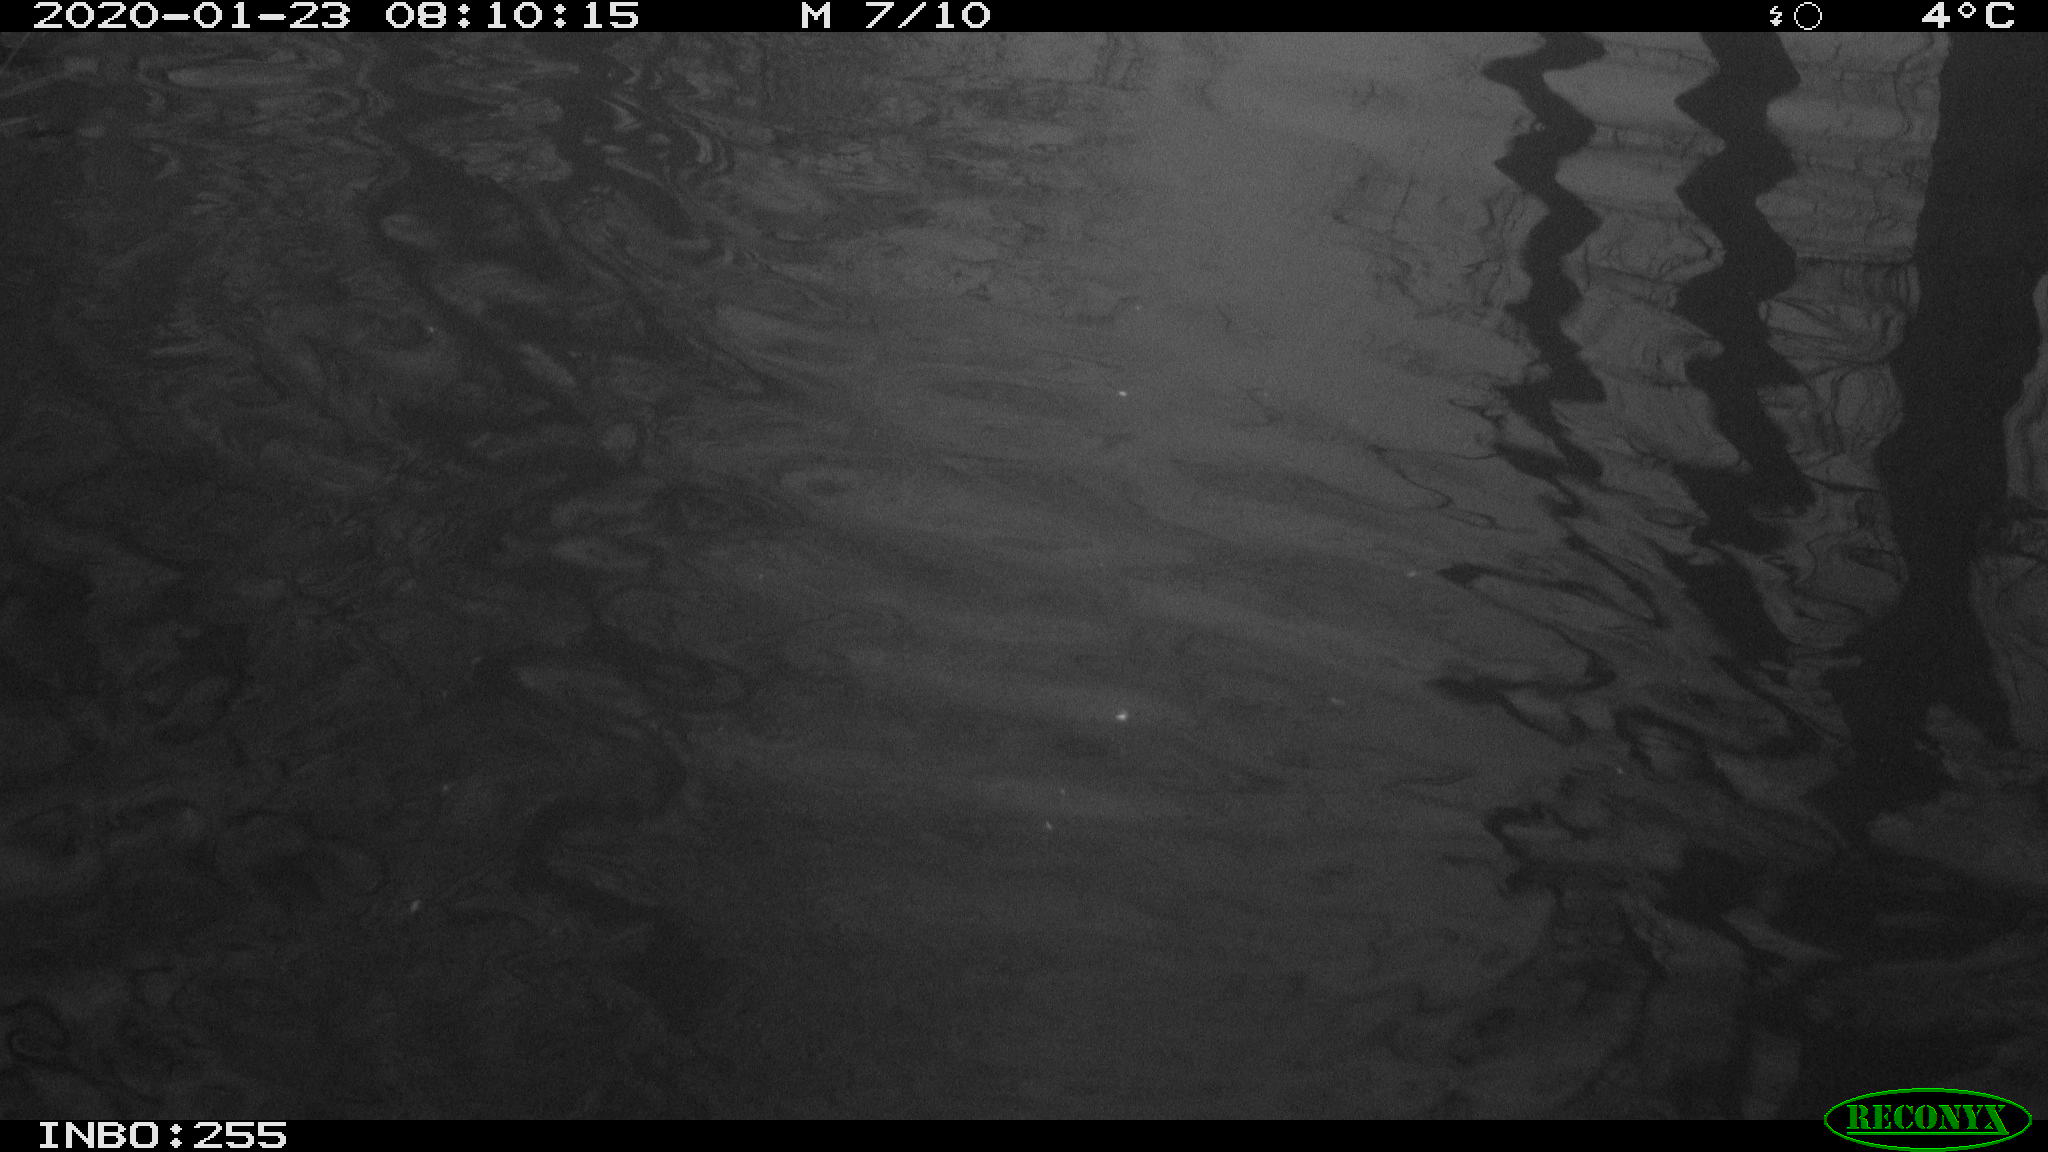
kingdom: Animalia
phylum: Chordata
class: Aves
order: Anseriformes
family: Anatidae
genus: Anas
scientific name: Anas platyrhynchos
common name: Mallard
